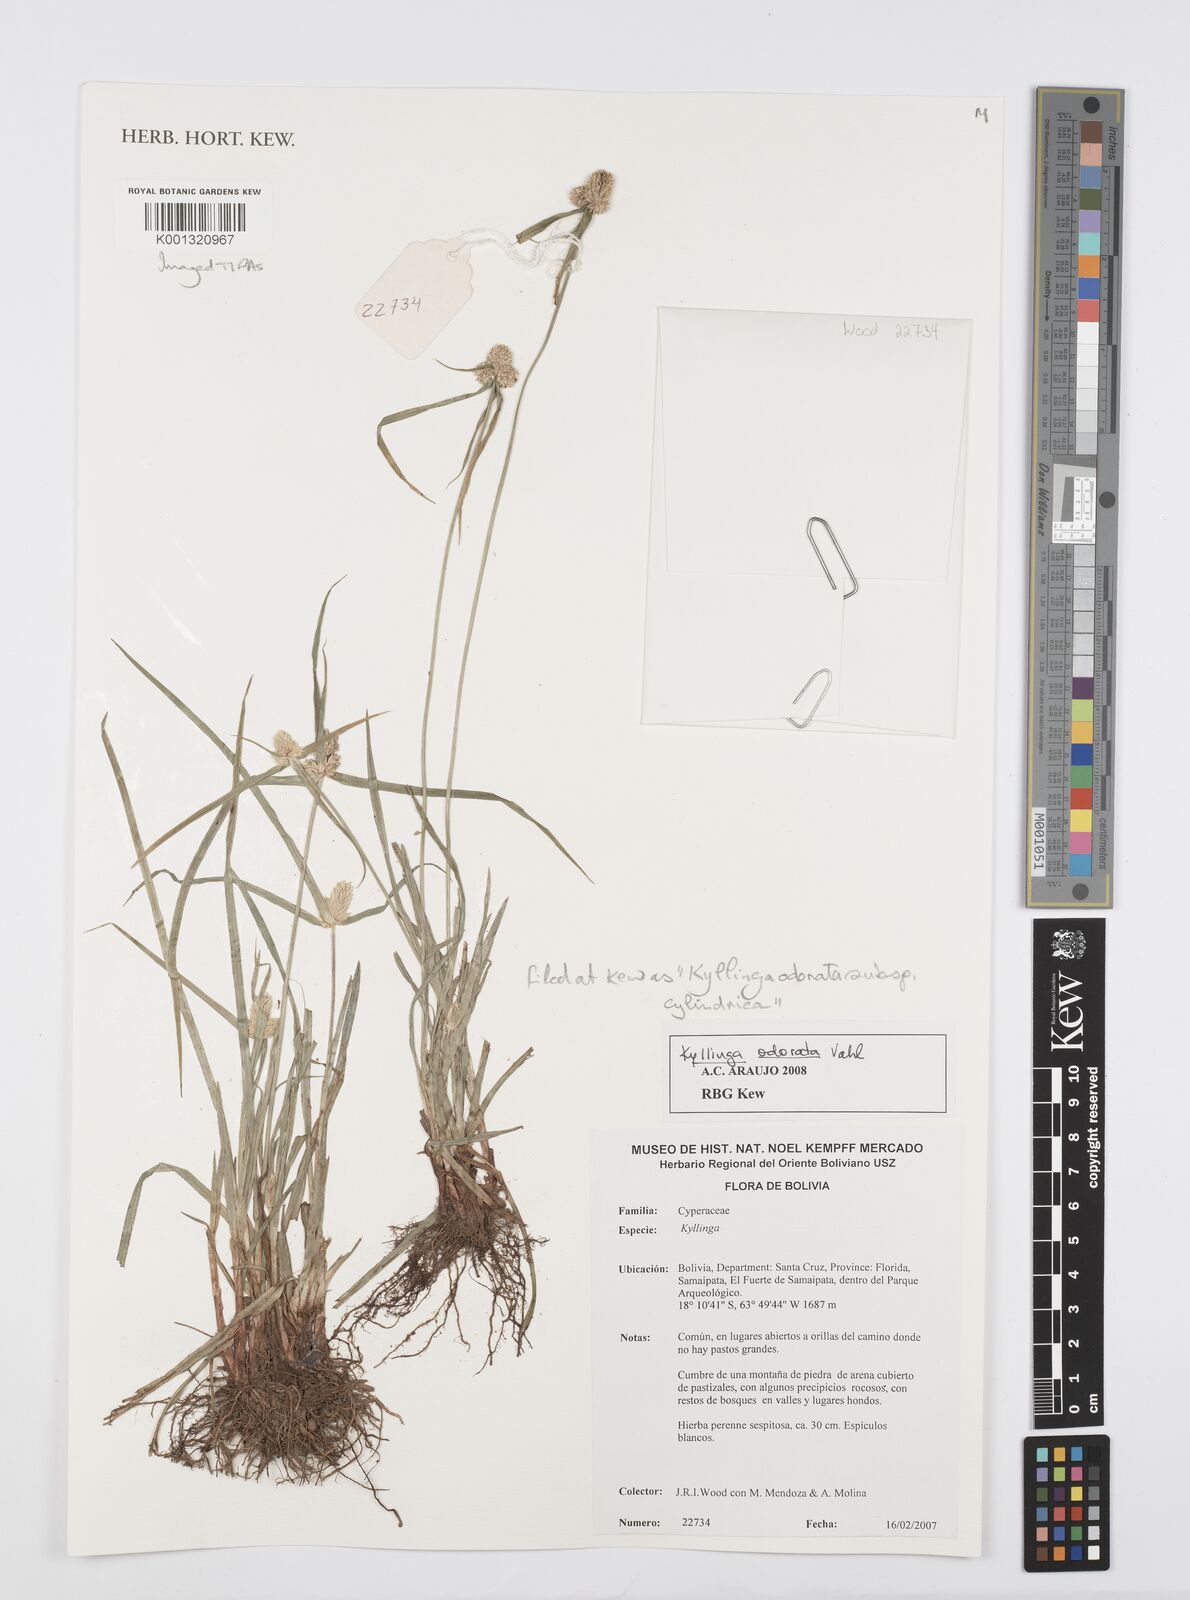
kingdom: Plantae
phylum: Tracheophyta
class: Liliopsida
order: Poales
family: Cyperaceae
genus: Cyperus
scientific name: Cyperus
